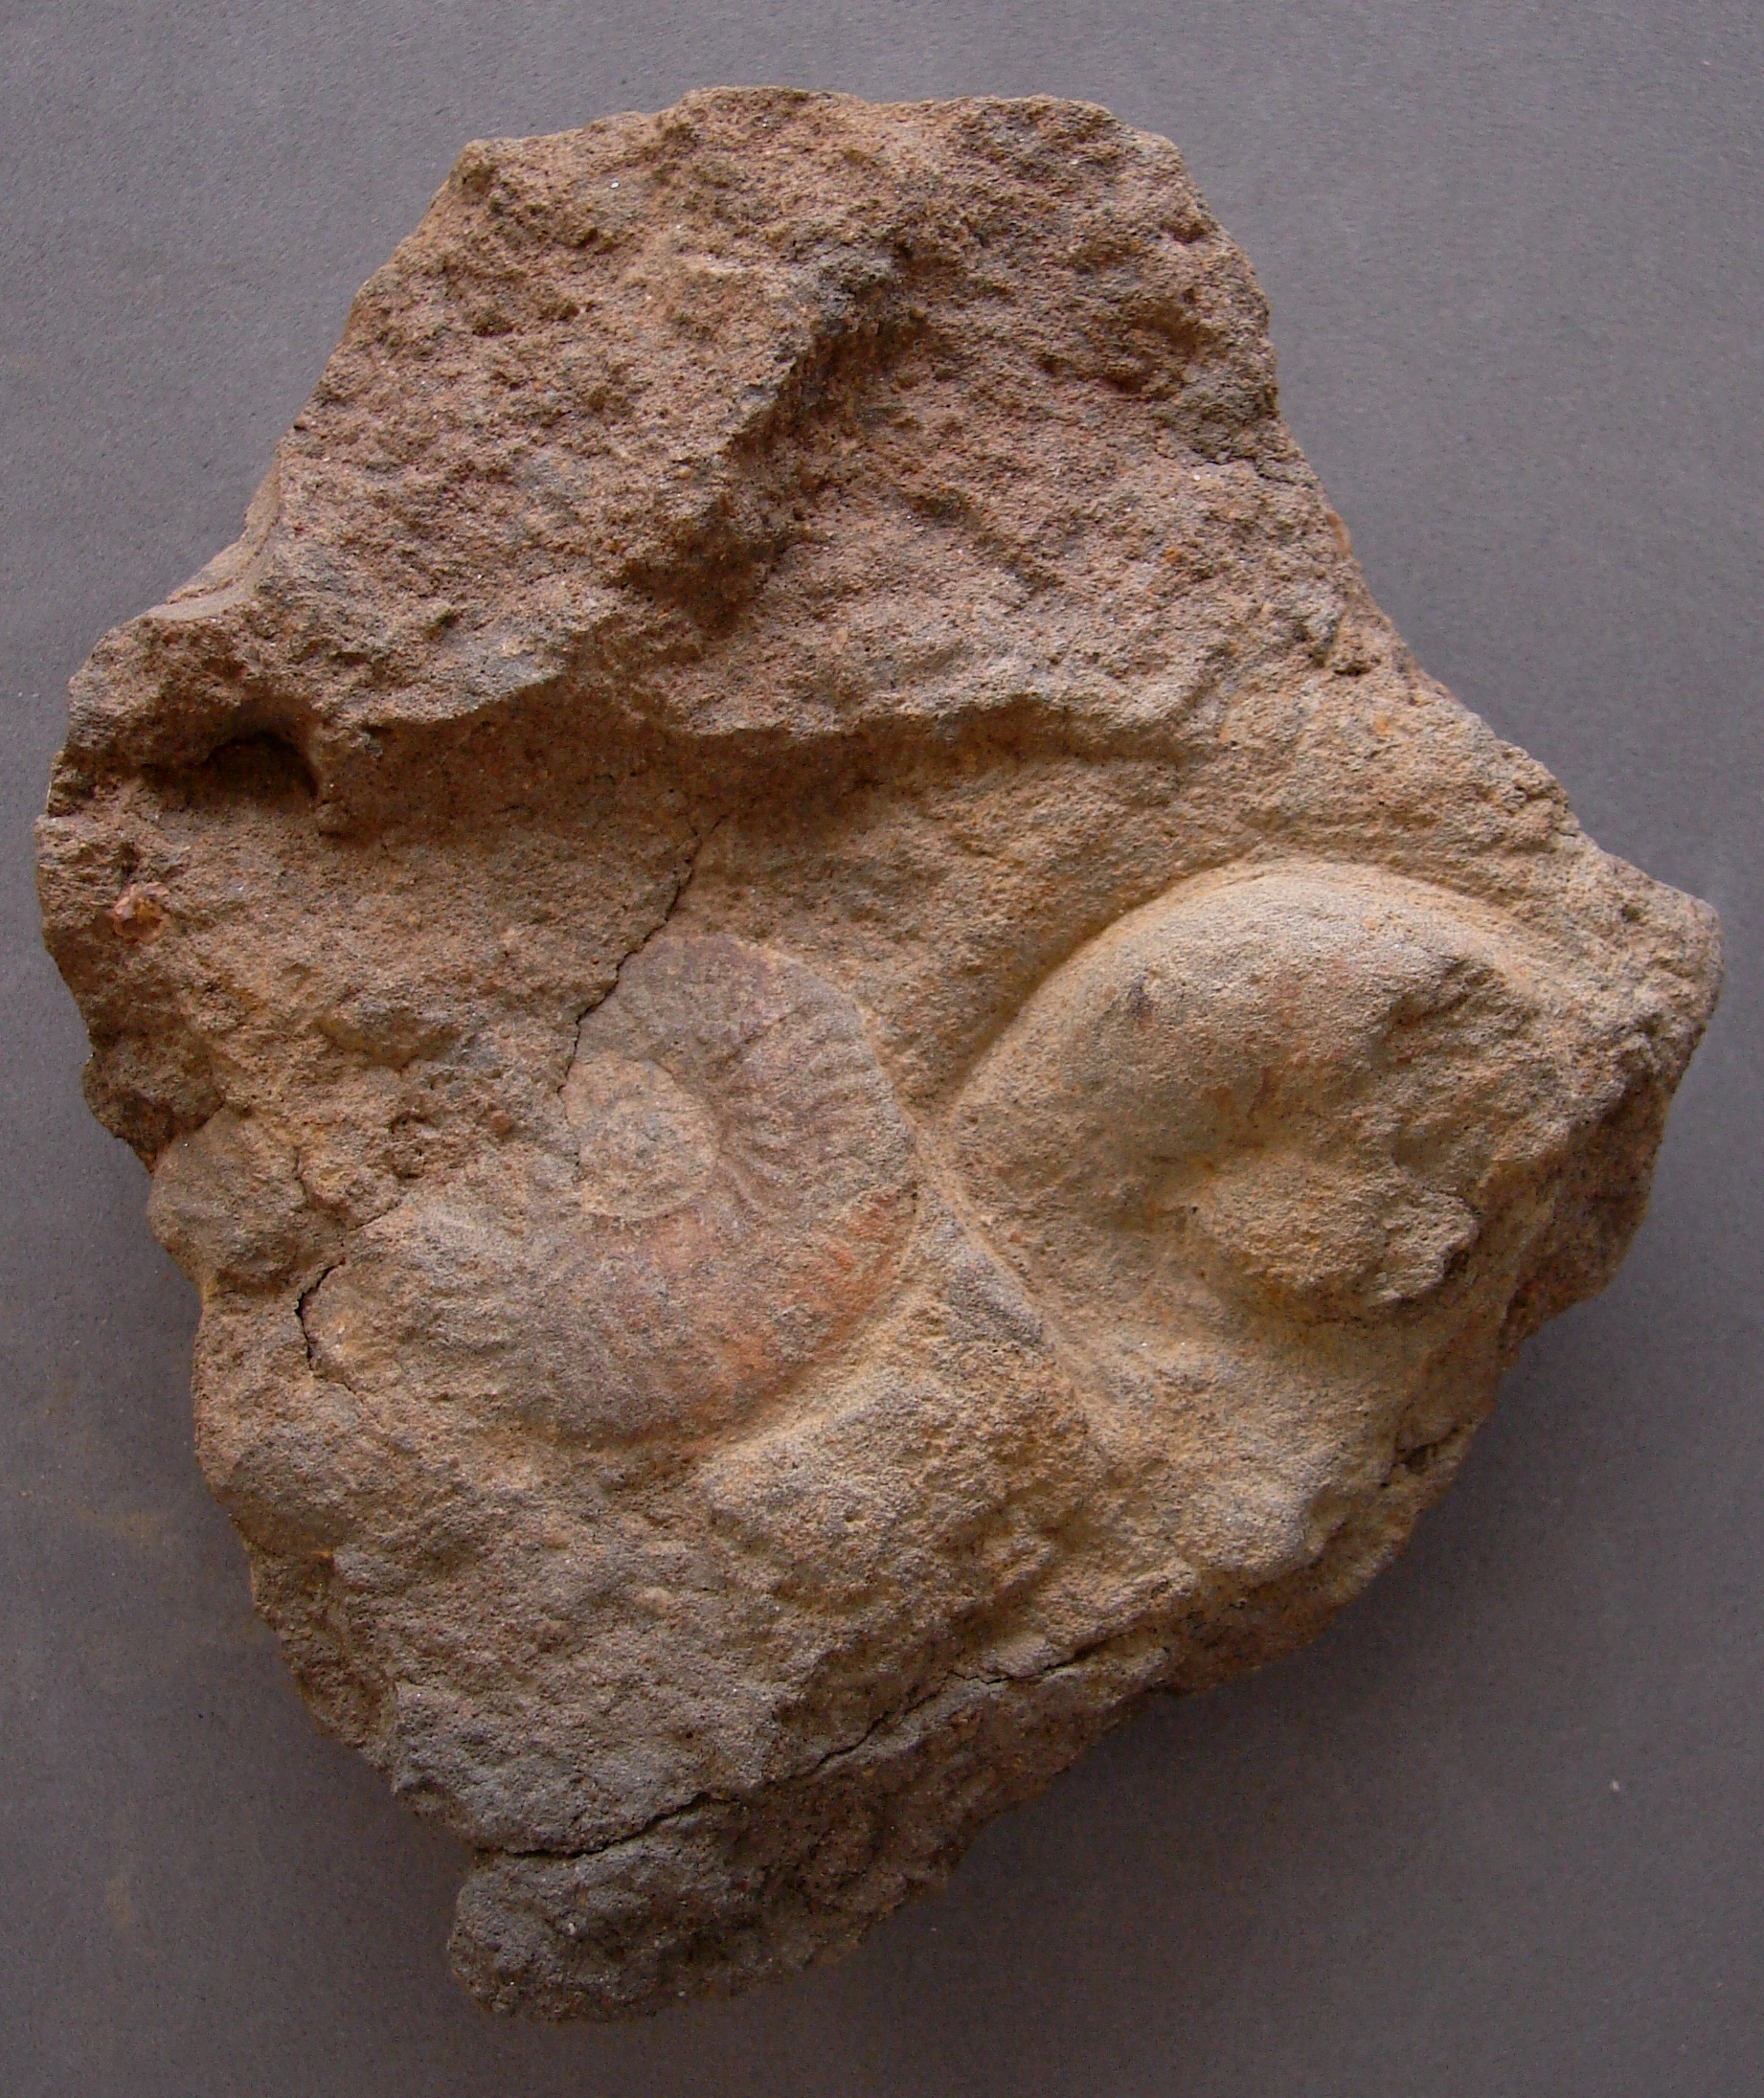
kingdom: Animalia
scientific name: Animalia
